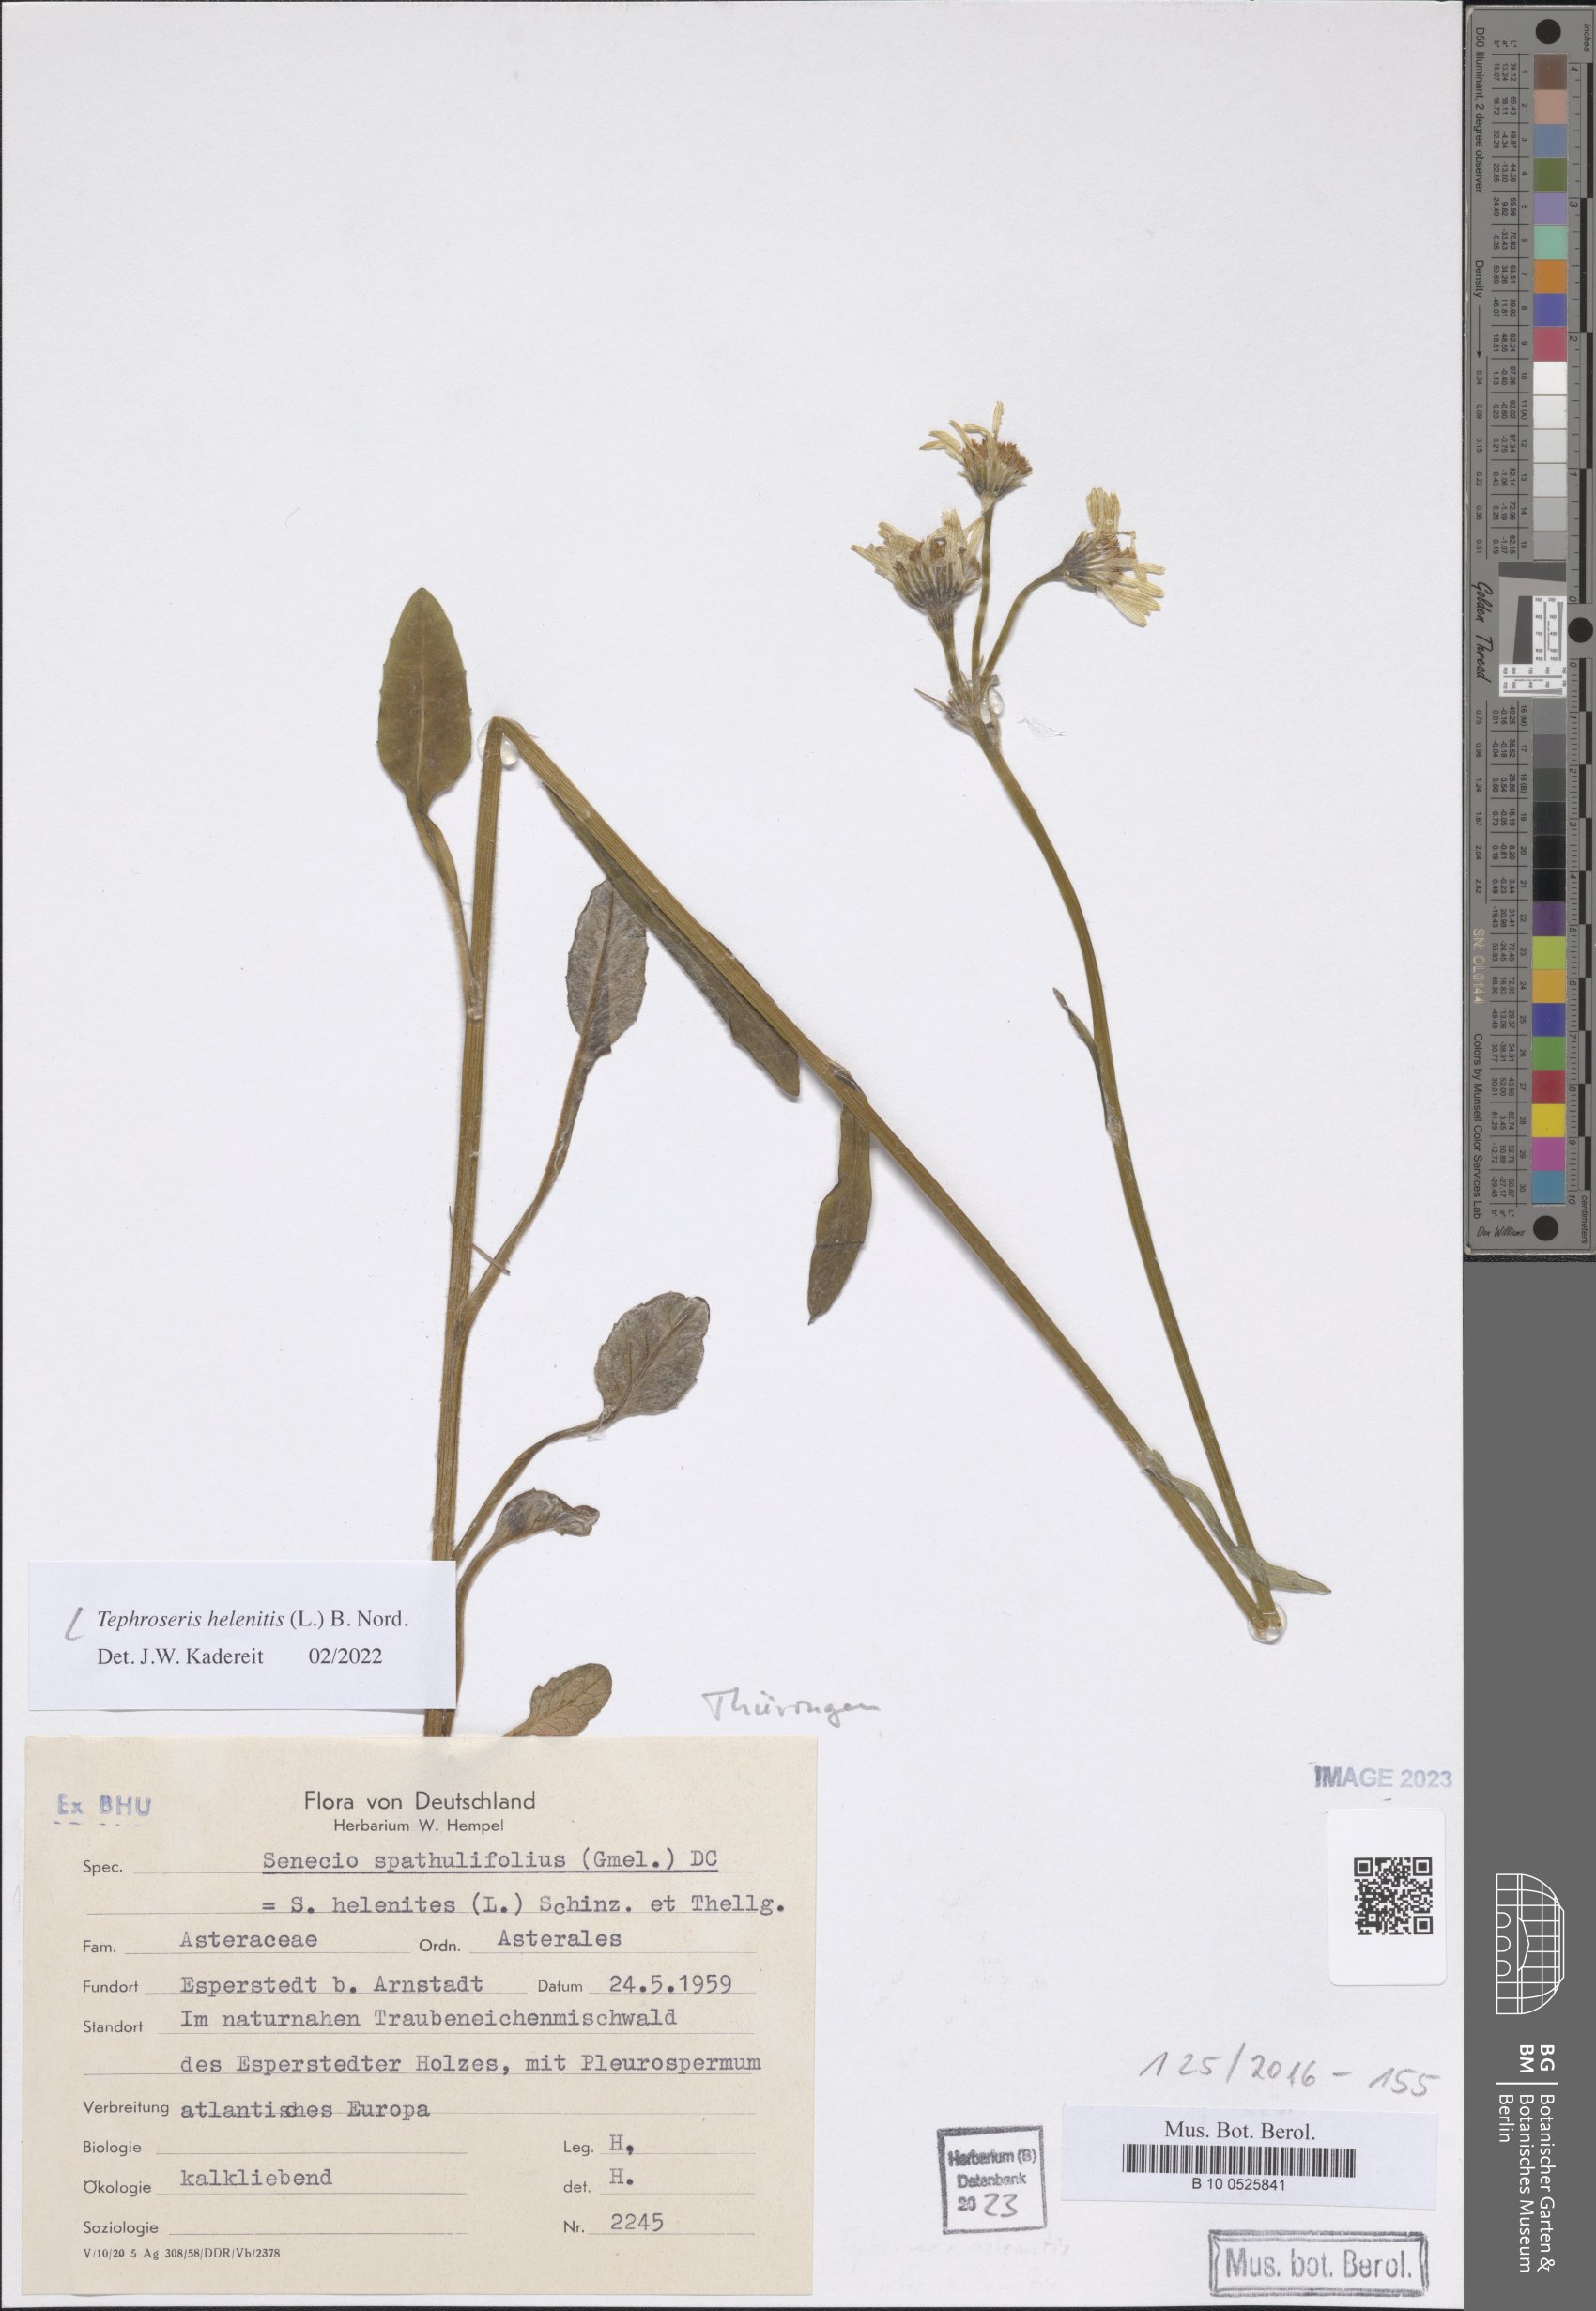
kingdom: Plantae
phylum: Tracheophyta
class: Magnoliopsida
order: Asterales
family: Asteraceae
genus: Tephroseris
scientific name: Tephroseris helenitis
